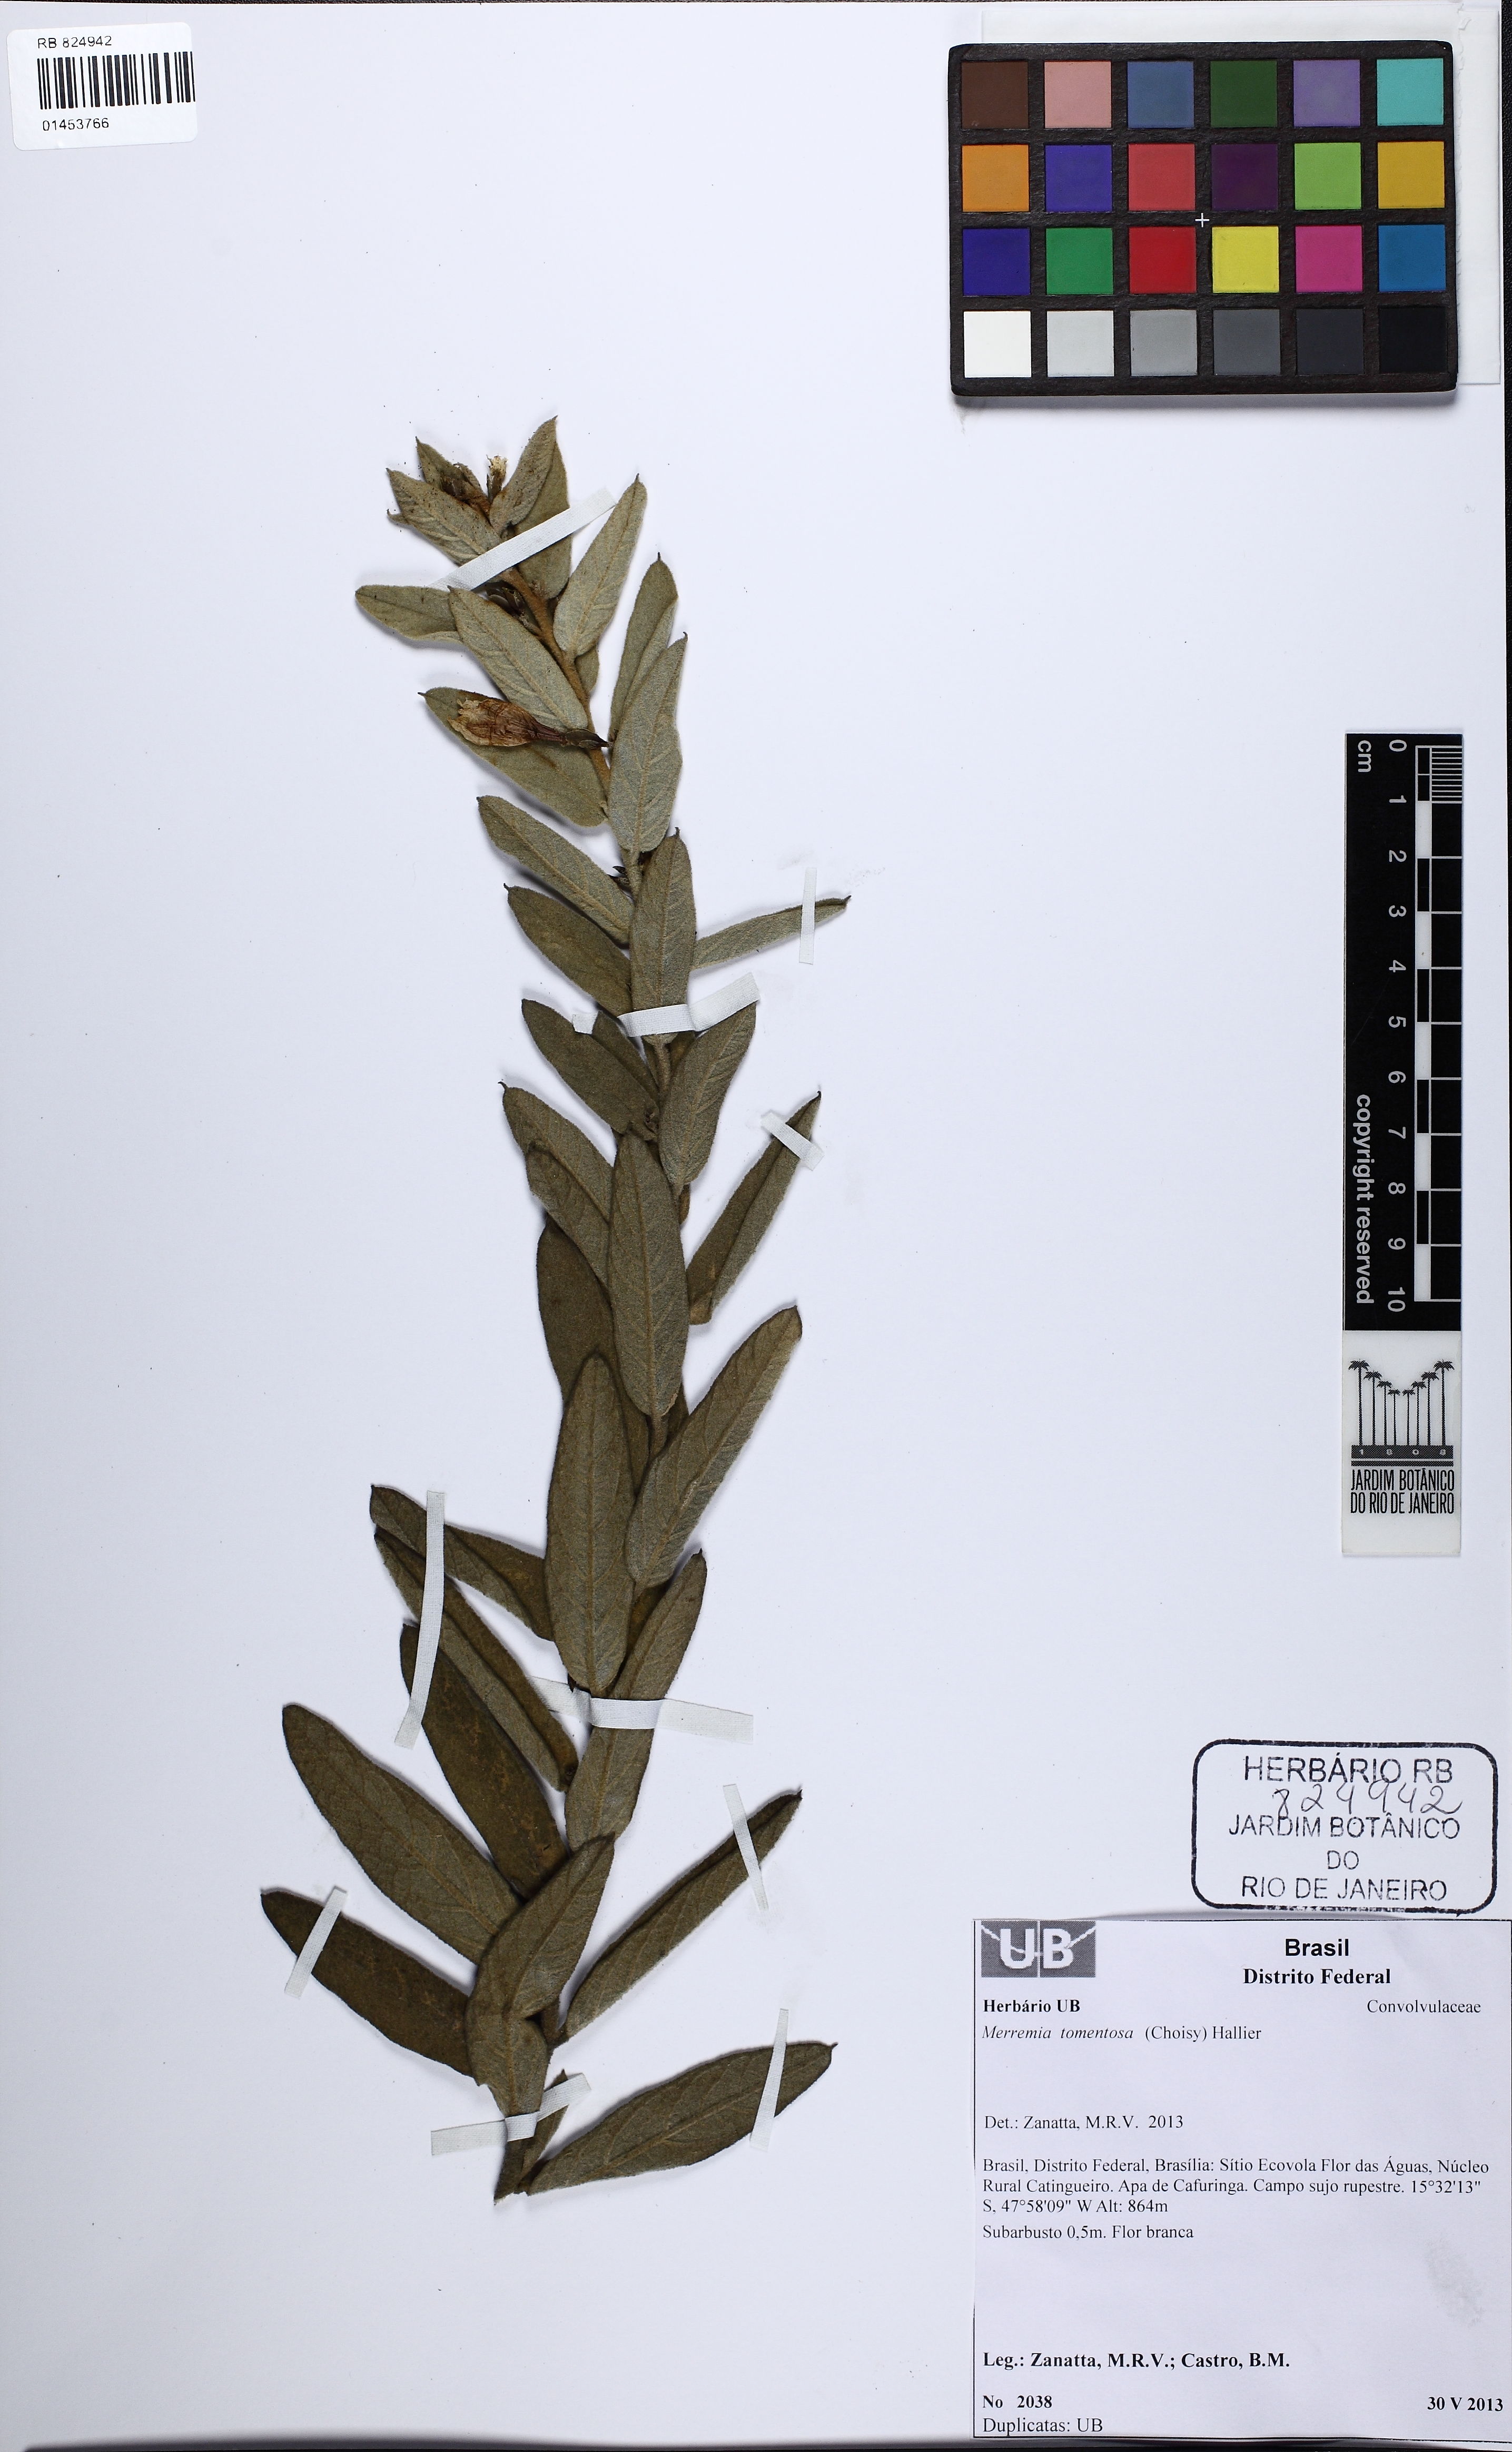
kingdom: Plantae
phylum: Tracheophyta
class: Magnoliopsida
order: Solanales
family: Convolvulaceae
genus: Distimake
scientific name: Distimake tomentosus
